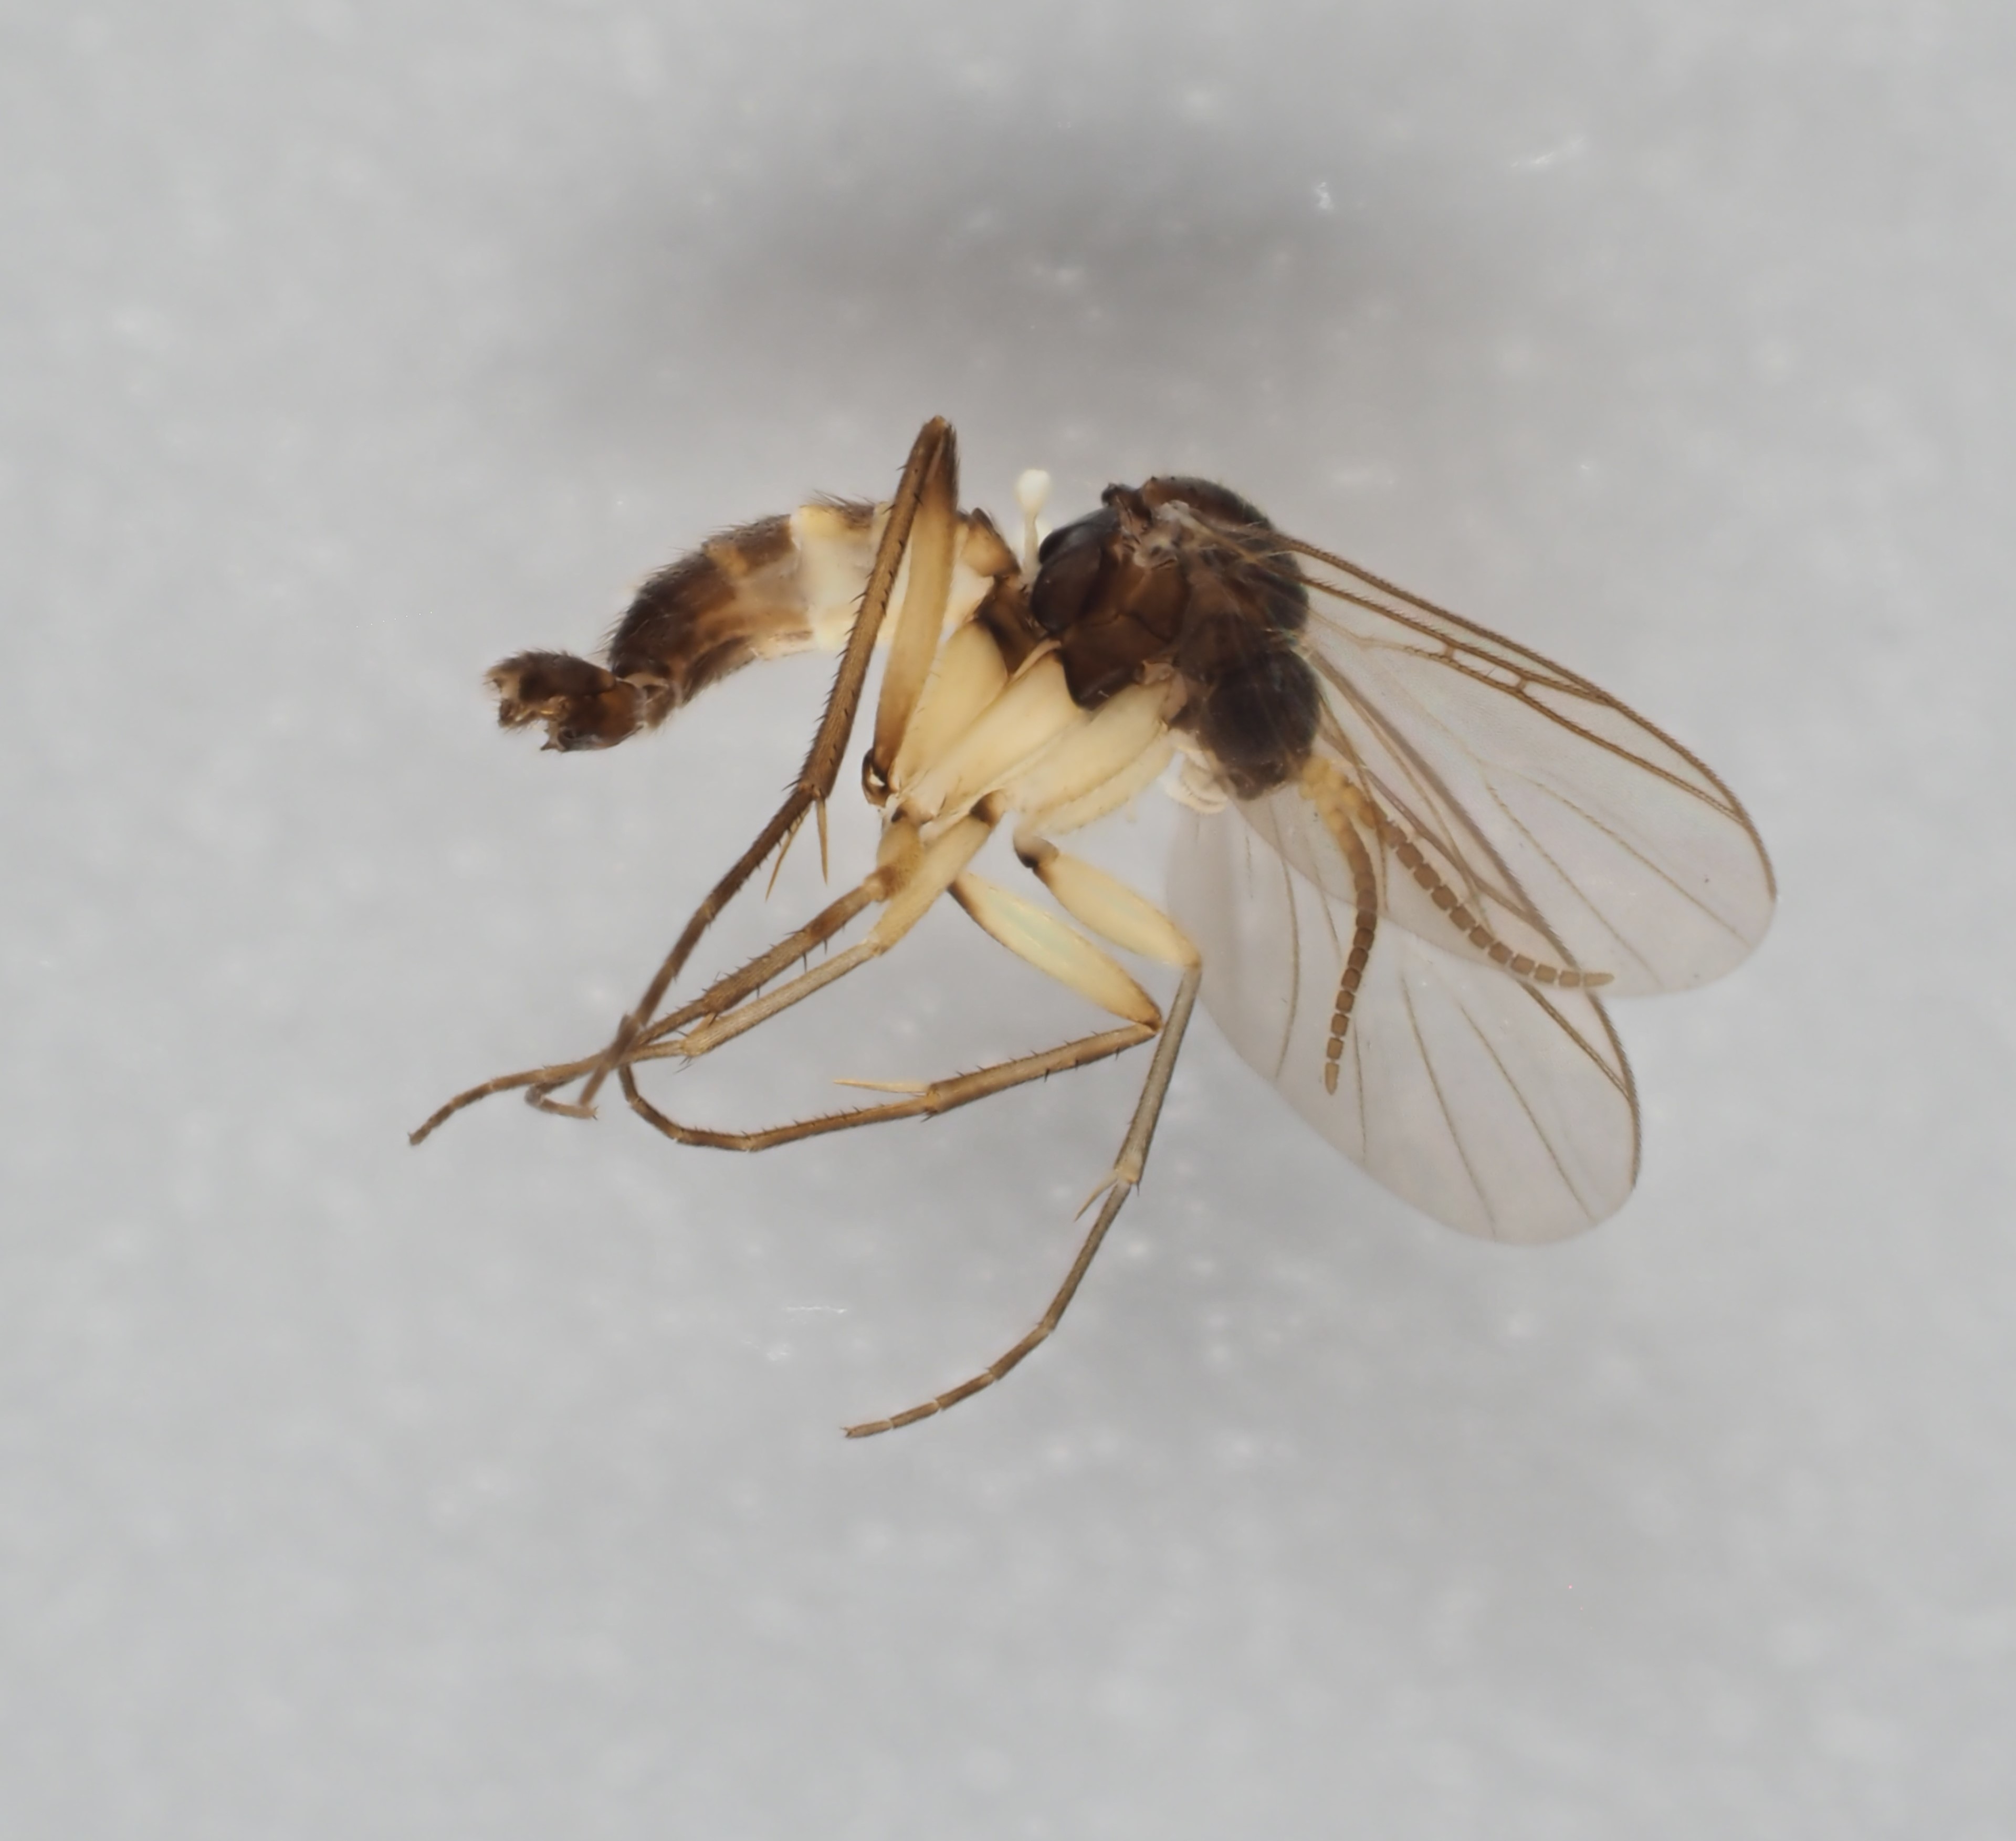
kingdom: Animalia
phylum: Arthropoda
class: Insecta
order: Diptera
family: Mycetophilidae
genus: Ectrepesthoneura
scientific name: Ectrepesthoneura colyeri
